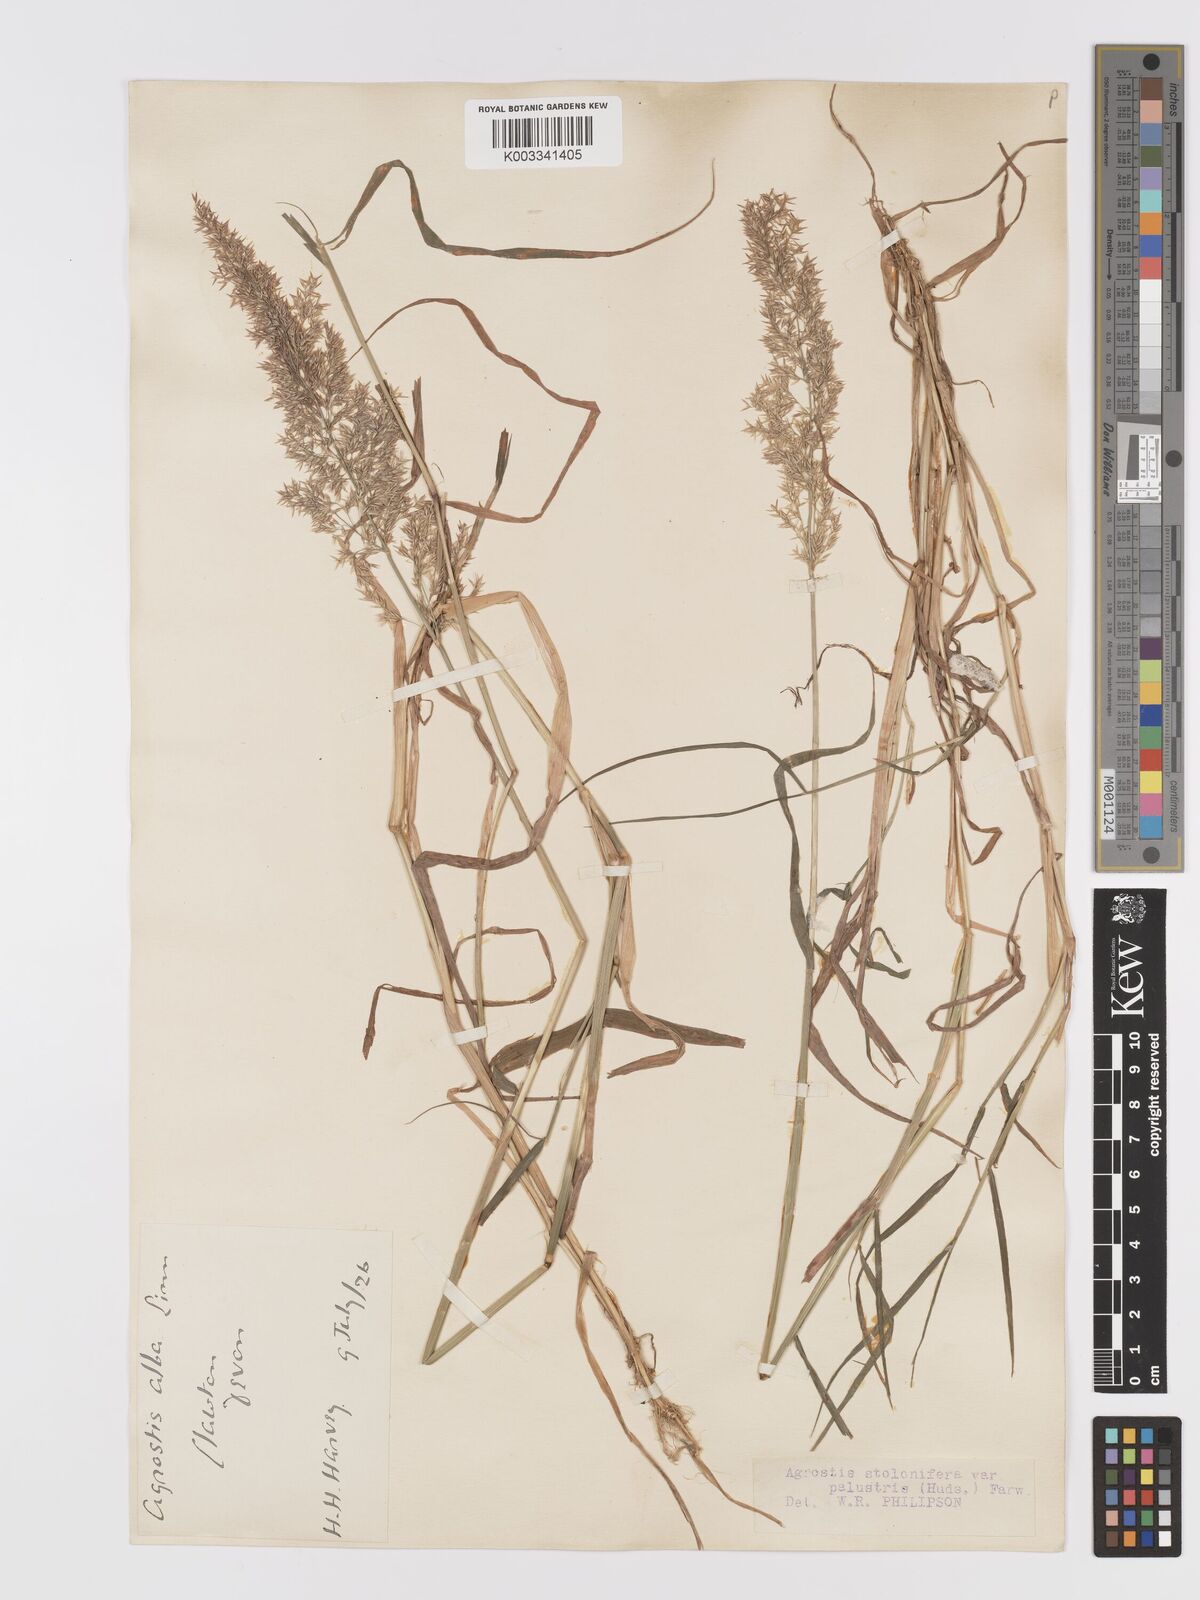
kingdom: Plantae
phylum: Tracheophyta
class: Liliopsida
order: Poales
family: Poaceae
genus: Agrostis
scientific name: Agrostis stolonifera
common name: Creeping bentgrass
